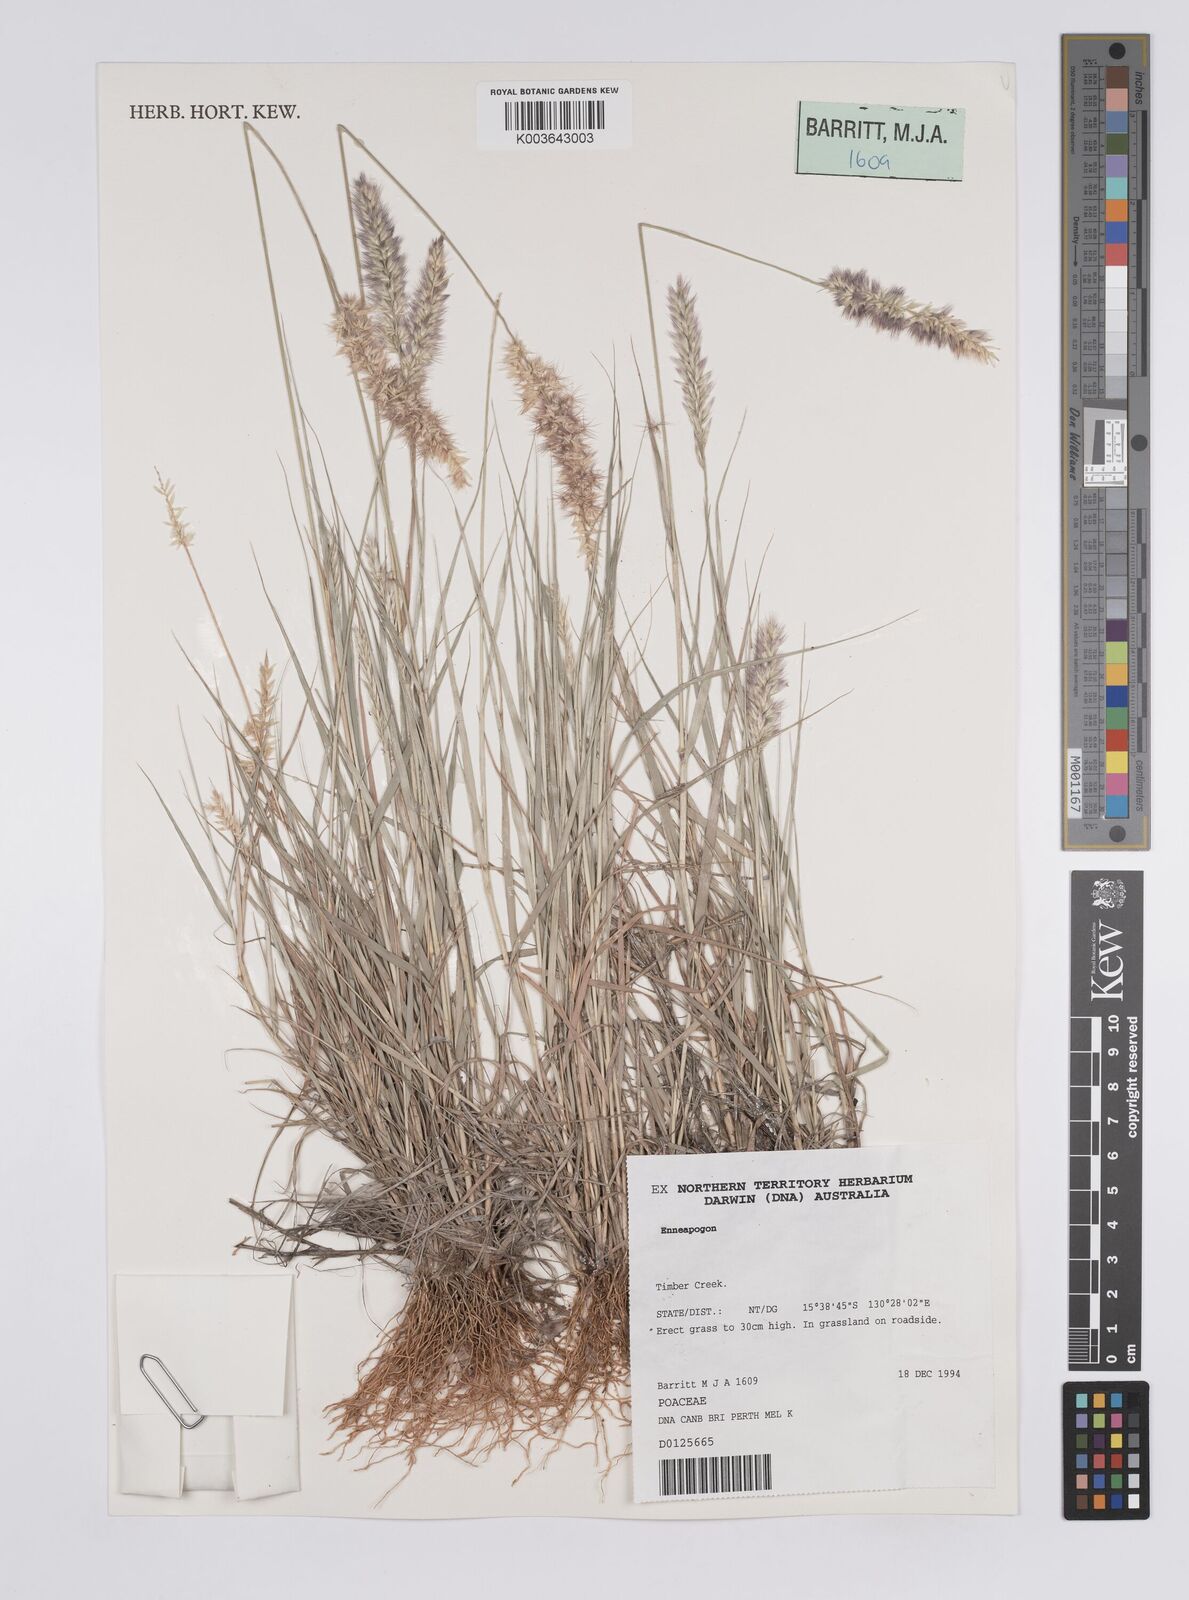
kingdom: Plantae
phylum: Tracheophyta
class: Liliopsida
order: Poales
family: Poaceae
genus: Enneapogon
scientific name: Enneapogon purpurascens
